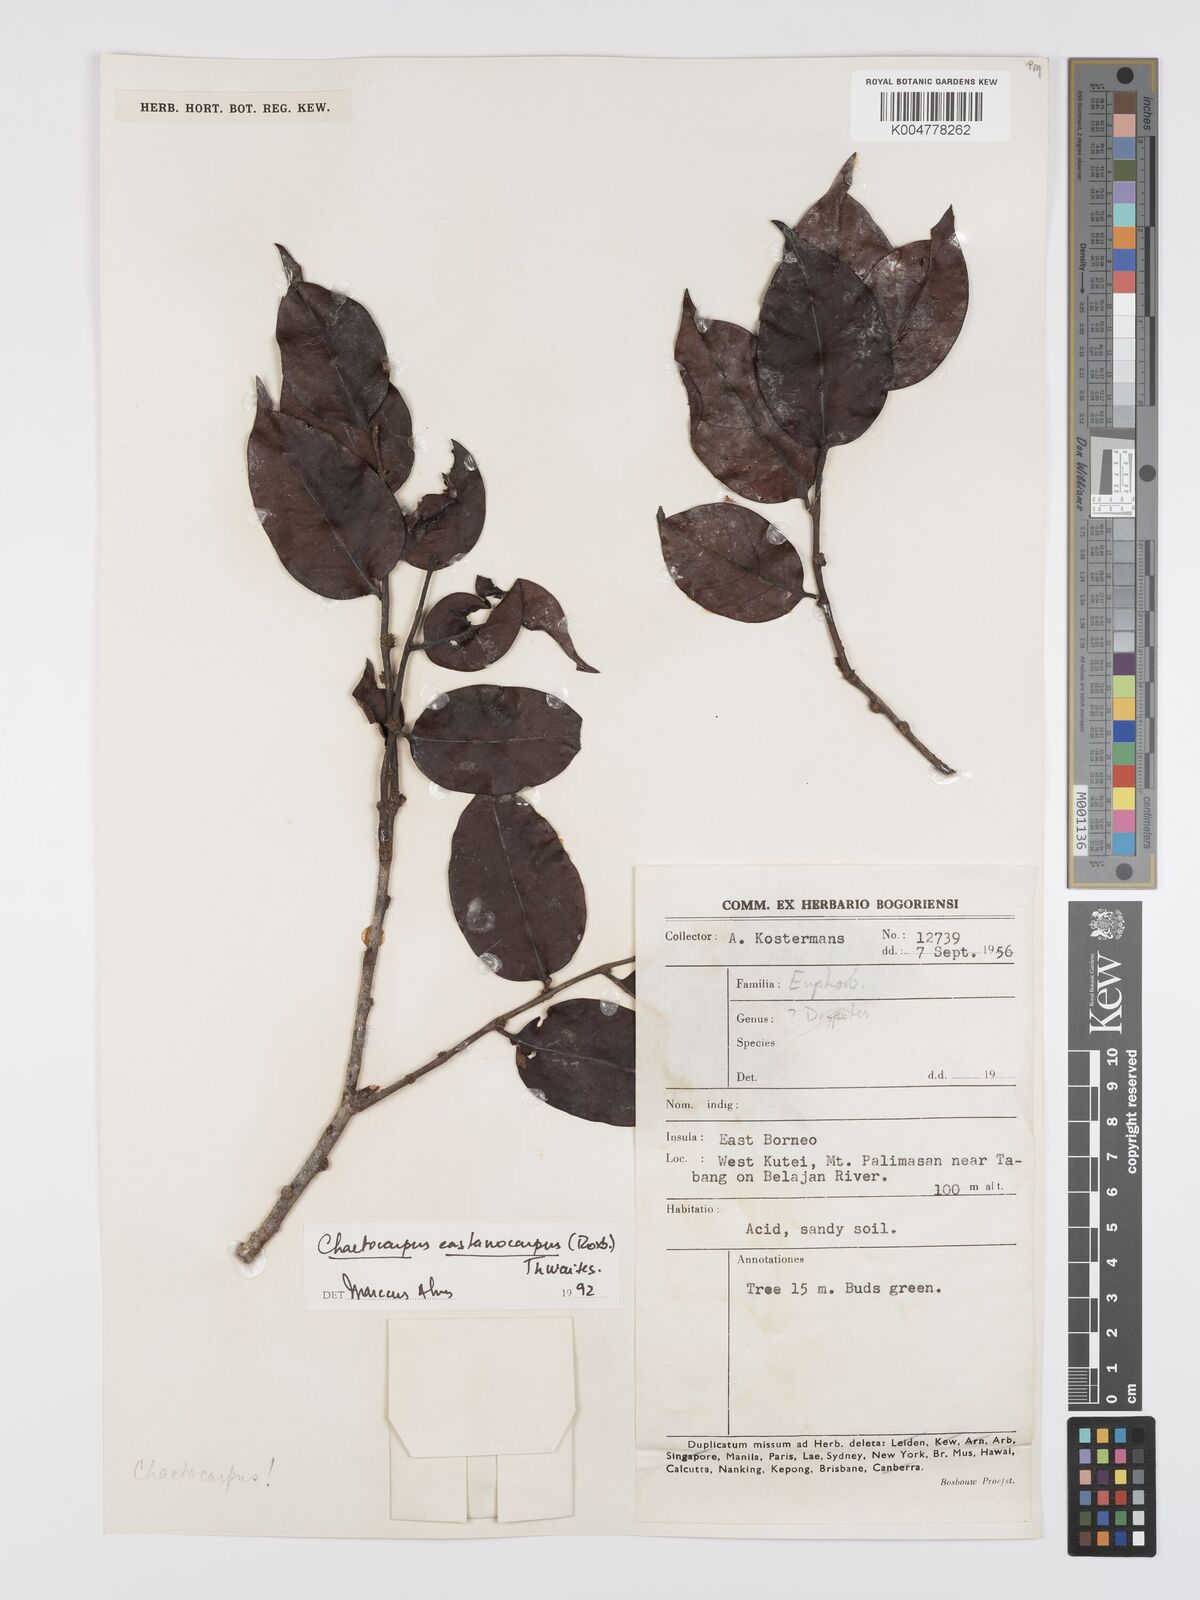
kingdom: Plantae
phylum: Tracheophyta
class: Magnoliopsida
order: Malpighiales
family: Peraceae
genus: Chaetocarpus
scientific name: Chaetocarpus castanocarpus
